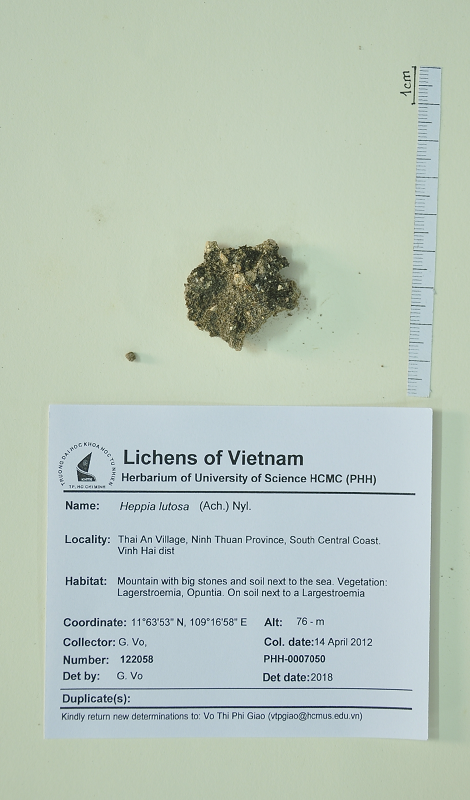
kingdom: Fungi
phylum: Ascomycota
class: Lichinomycetes
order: Lichinales
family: Lichinaceae
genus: Heppia
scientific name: Heppia lutosa
